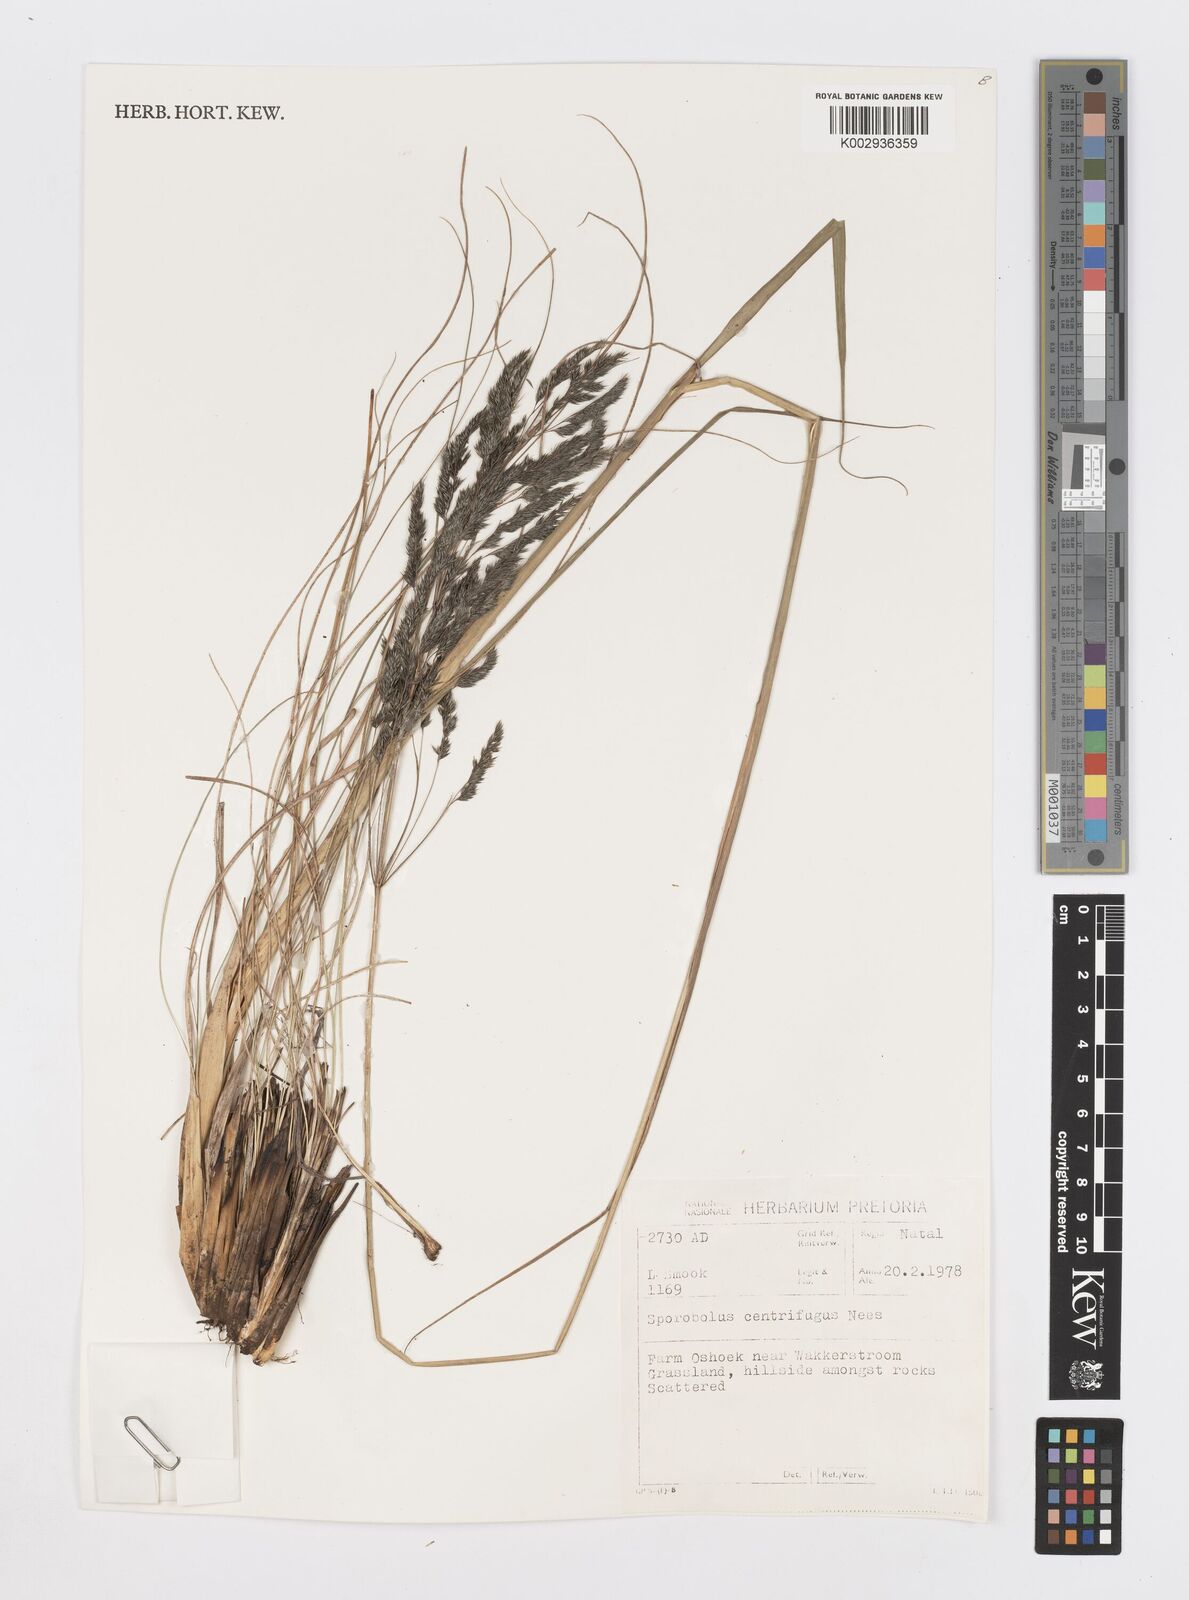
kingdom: Plantae
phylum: Tracheophyta
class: Liliopsida
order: Poales
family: Poaceae
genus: Sporobolus
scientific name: Sporobolus centrifugus
